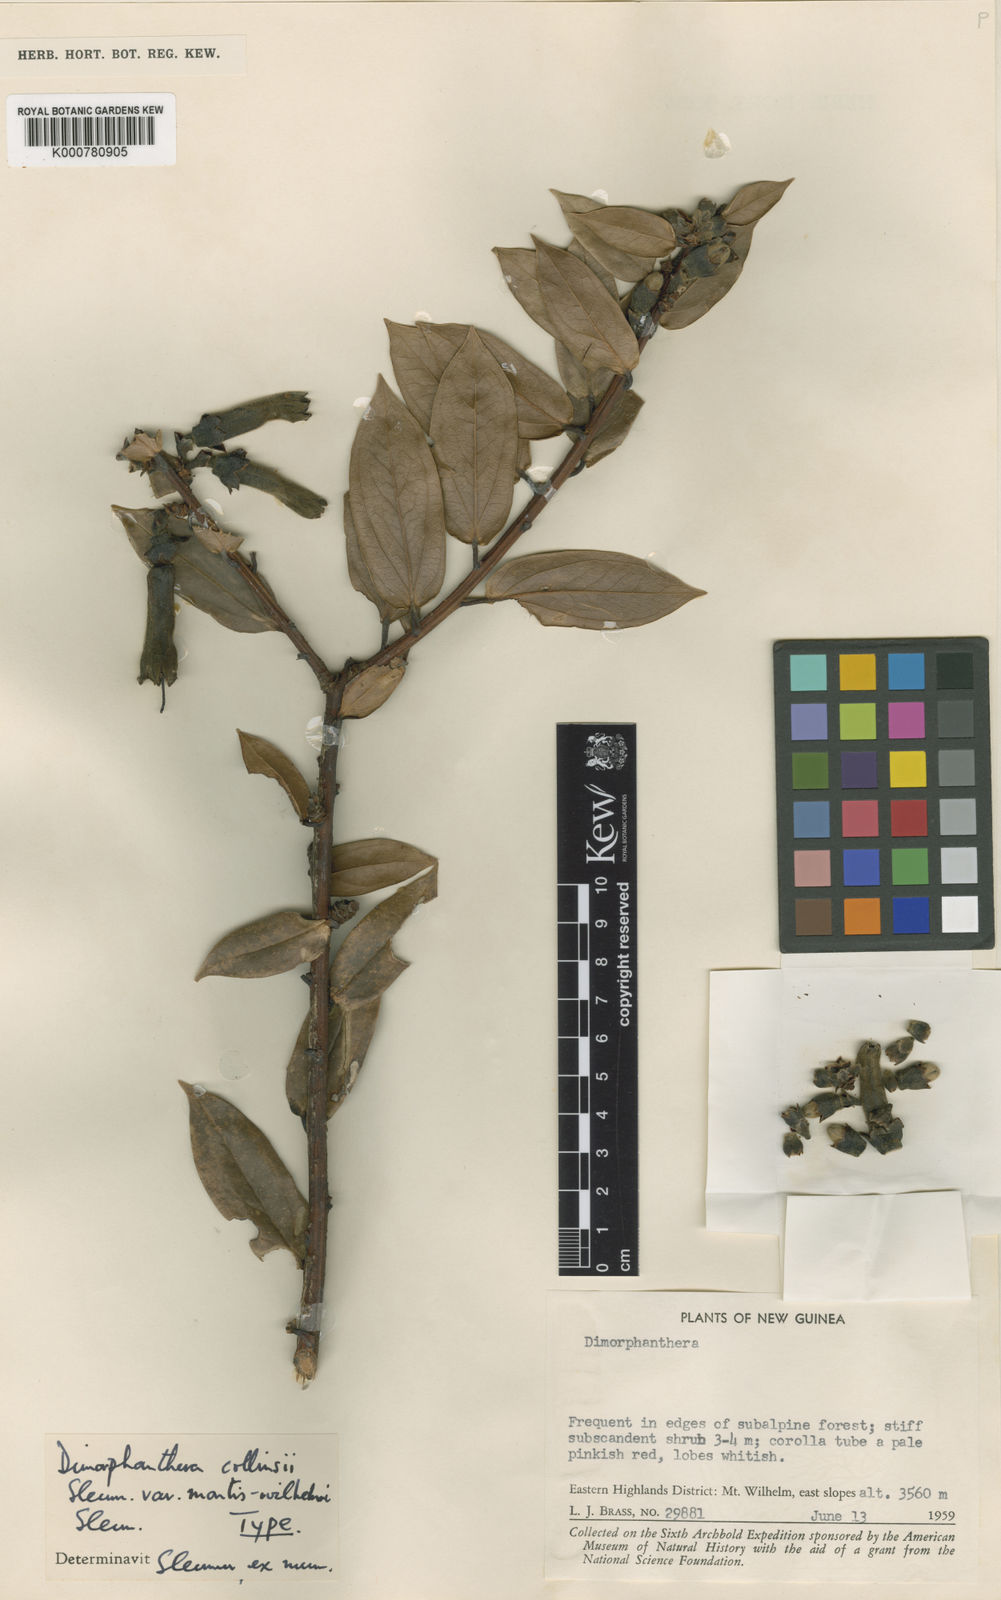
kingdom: Plantae
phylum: Tracheophyta
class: Magnoliopsida
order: Ericales
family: Ericaceae
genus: Dimorphanthera
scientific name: Dimorphanthera collinsii
